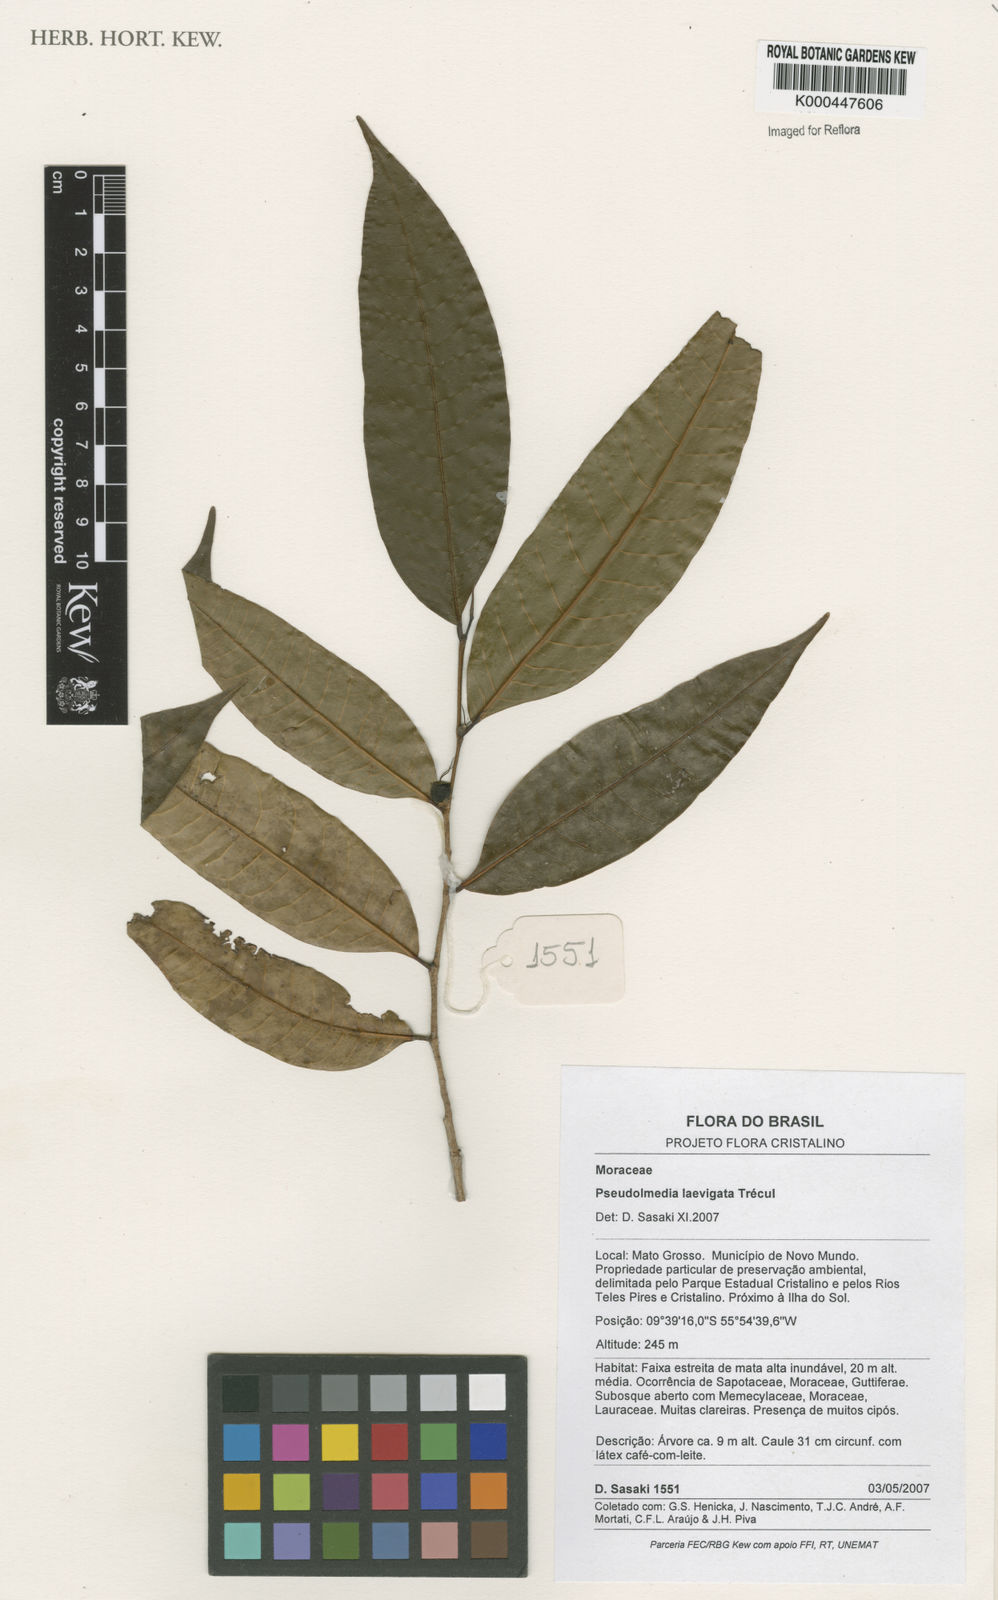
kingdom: Plantae
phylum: Tracheophyta
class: Magnoliopsida
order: Rosales
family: Moraceae
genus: Pseudolmedia
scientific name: Pseudolmedia
